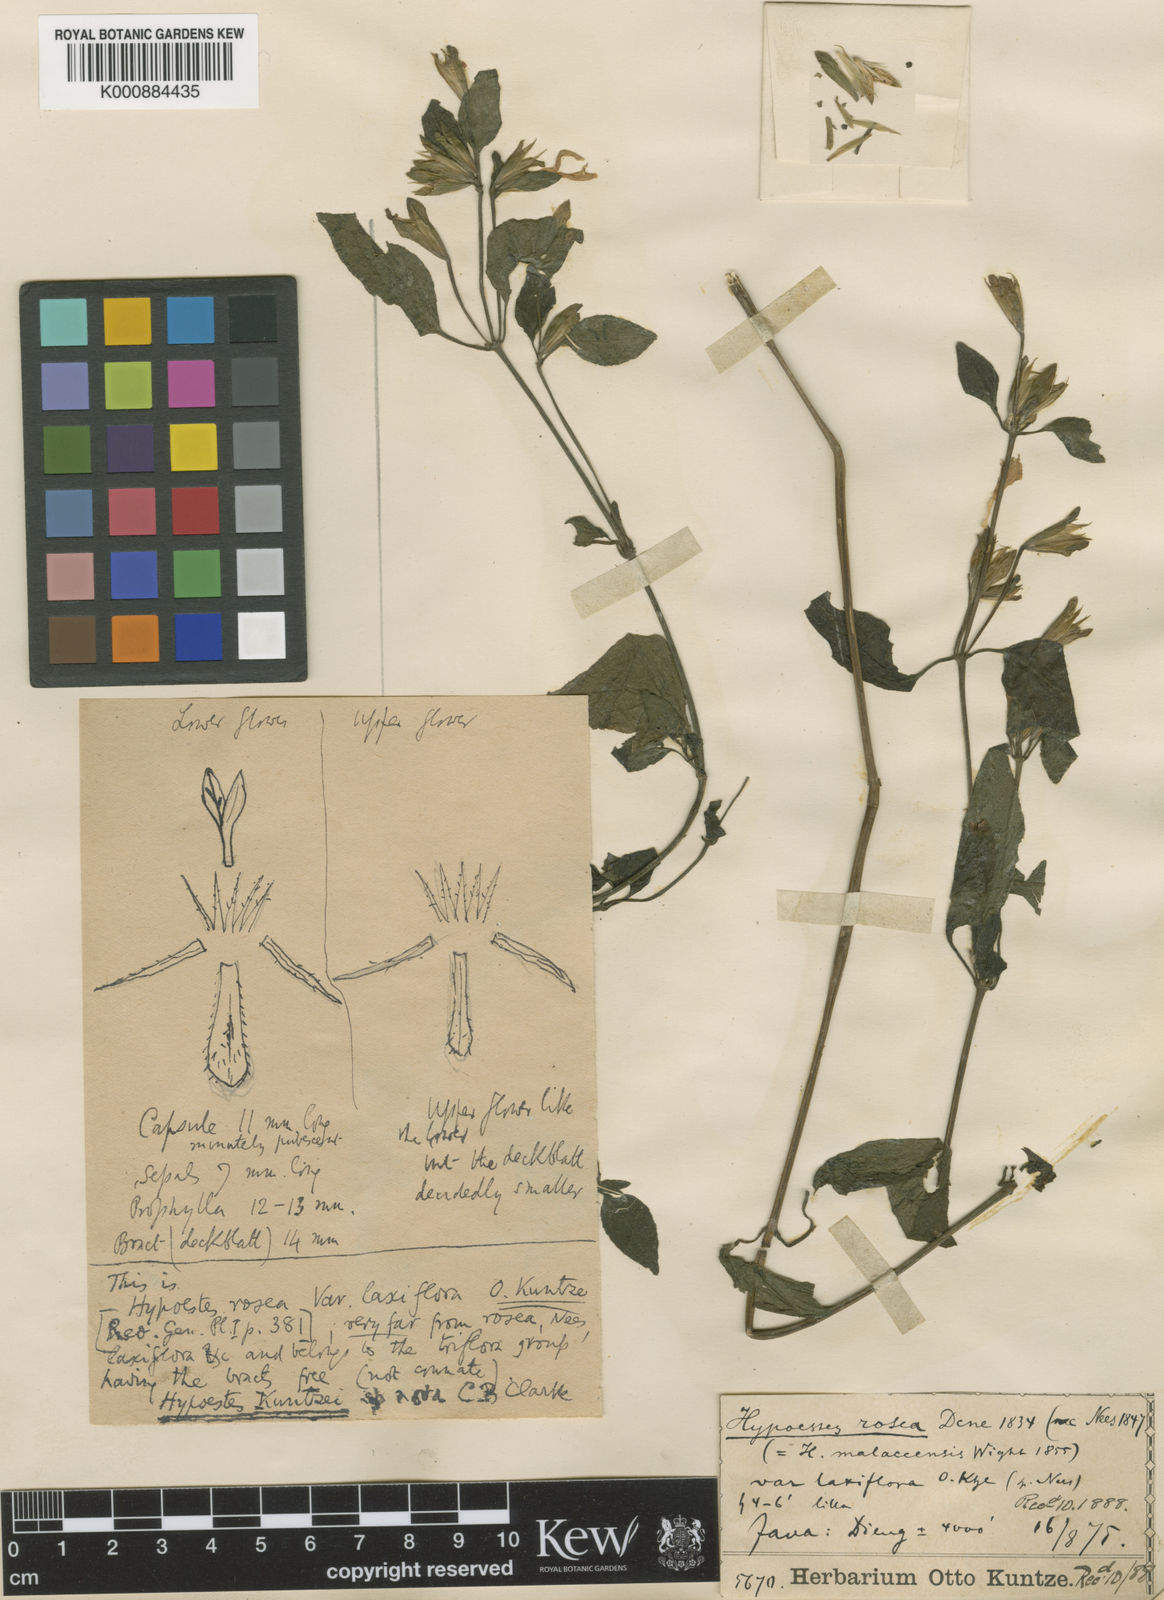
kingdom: Plantae
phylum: Tracheophyta
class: Magnoliopsida
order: Lamiales
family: Acanthaceae
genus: Hypoestes
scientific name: Hypoestes kuntzei
